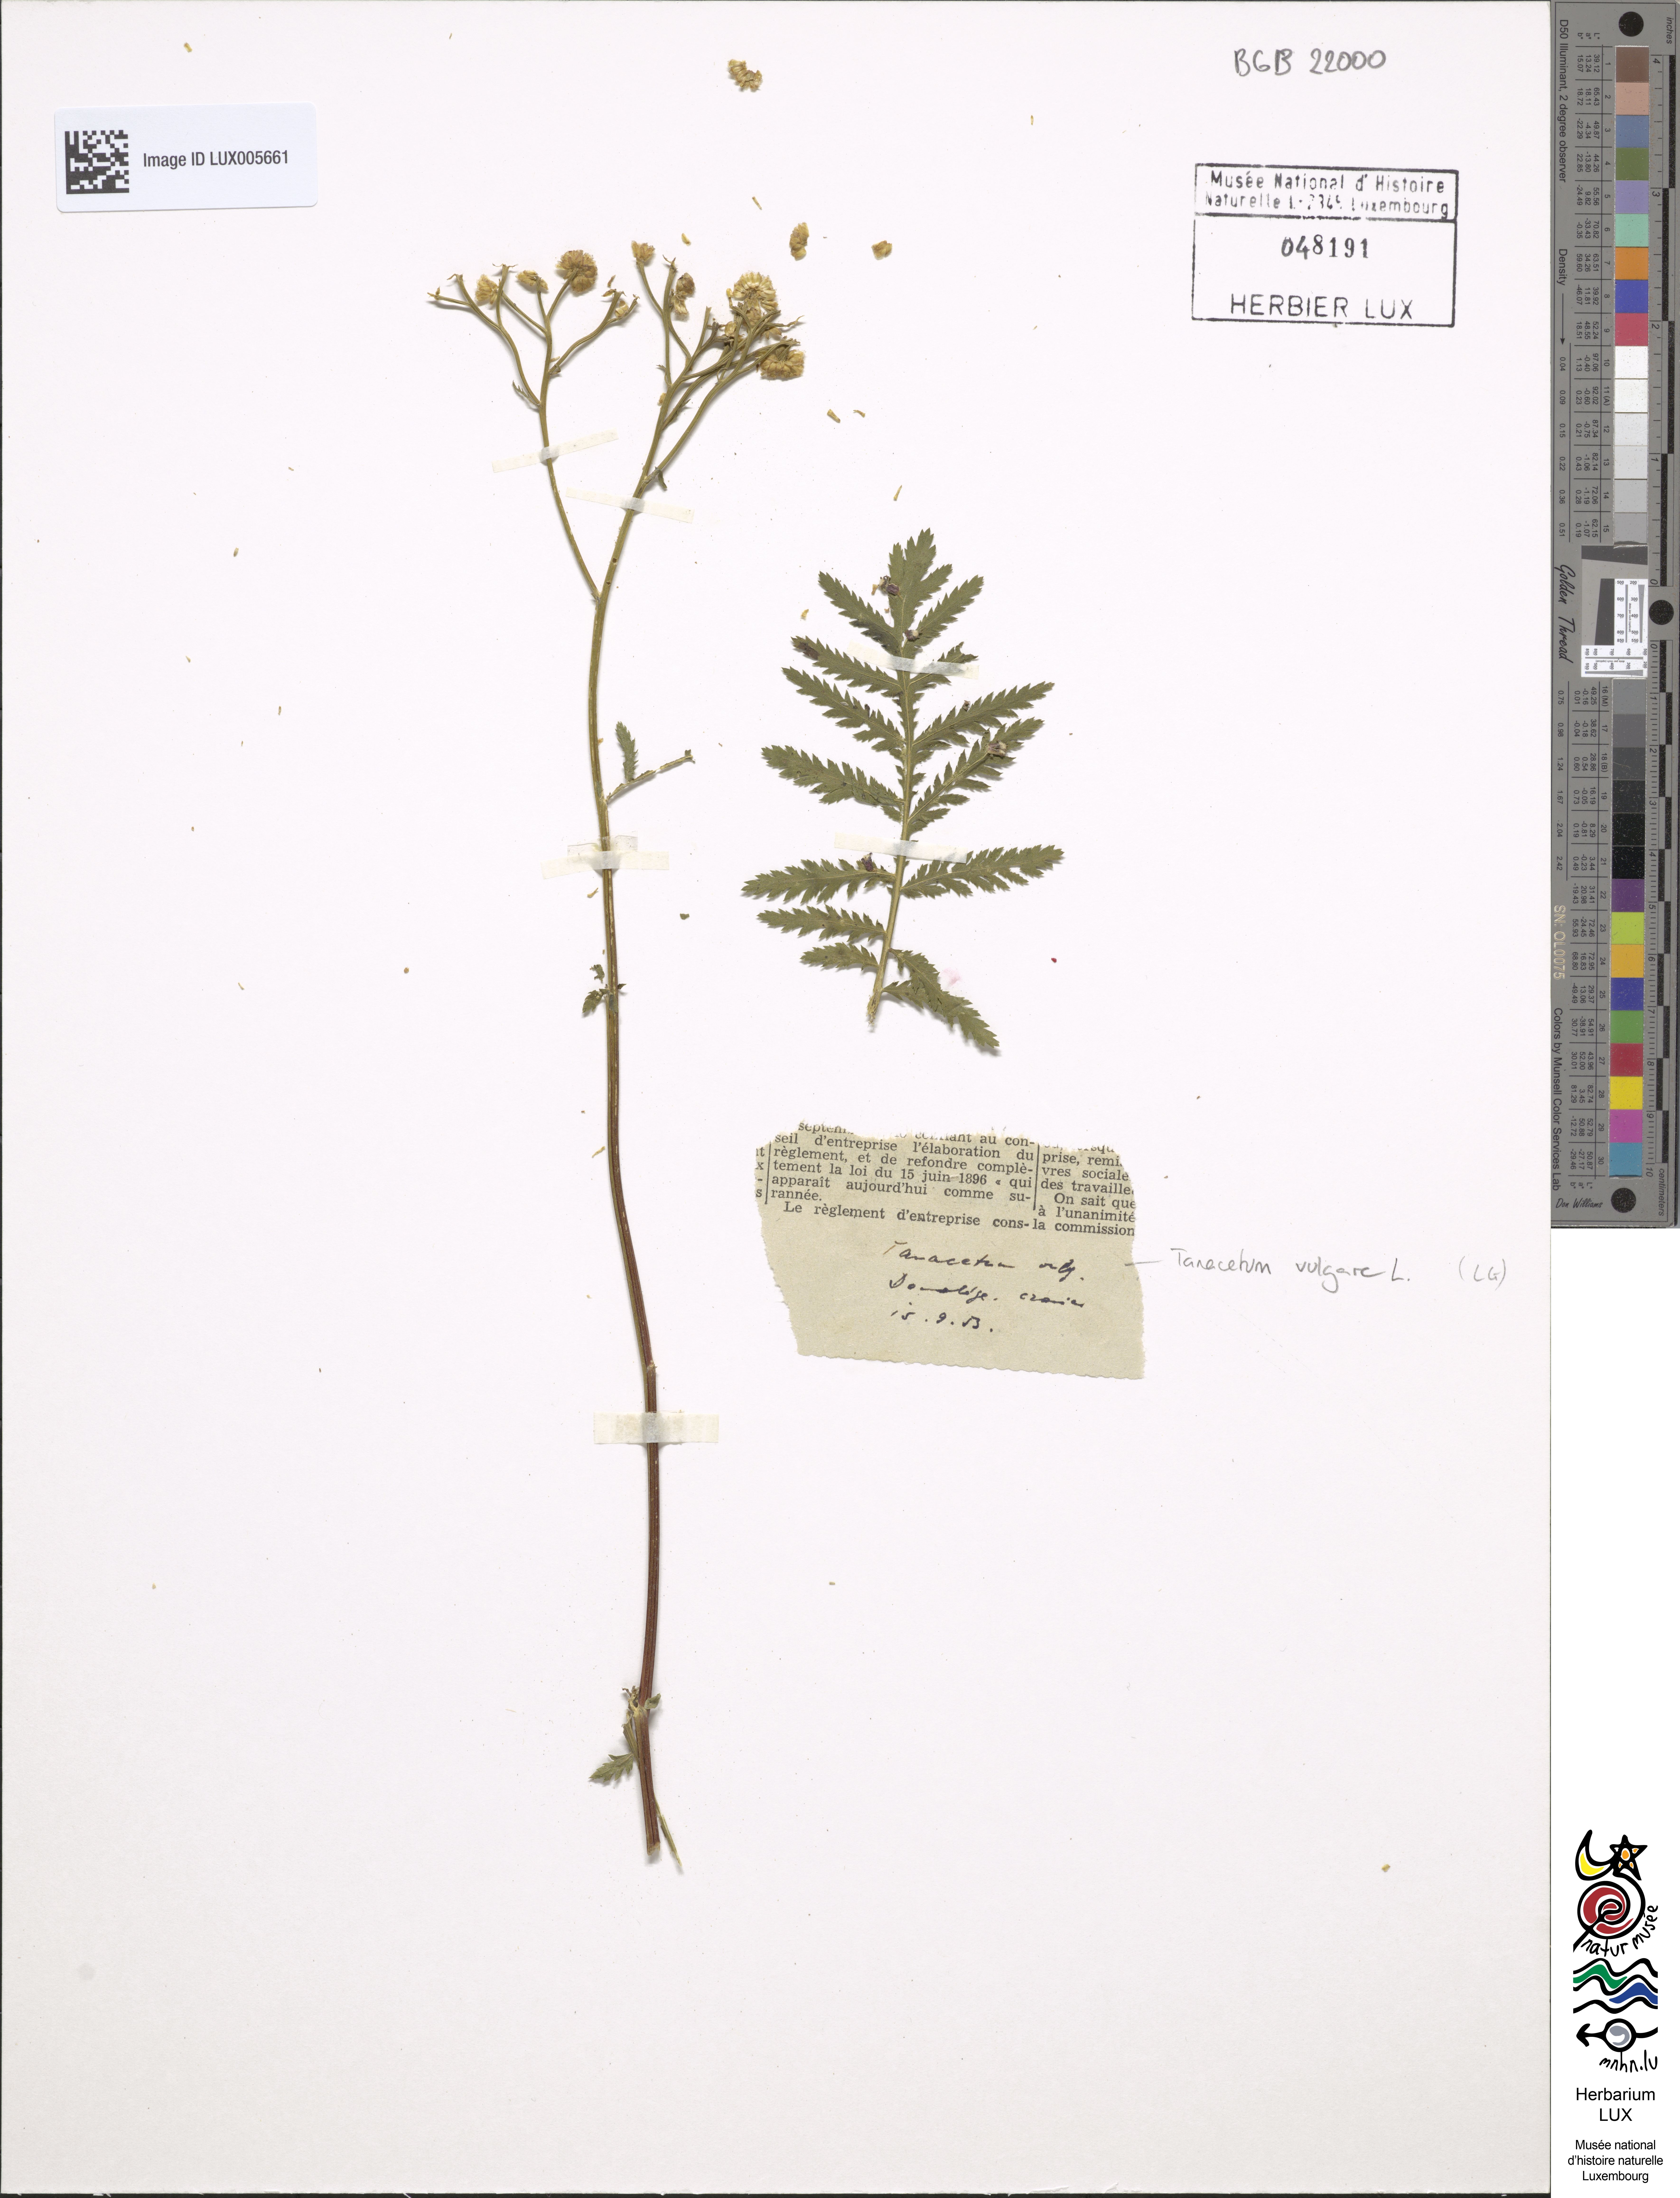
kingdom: Plantae
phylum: Tracheophyta
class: Magnoliopsida
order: Asterales
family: Asteraceae
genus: Tanacetum
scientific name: Tanacetum vulgare
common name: Common tansy
